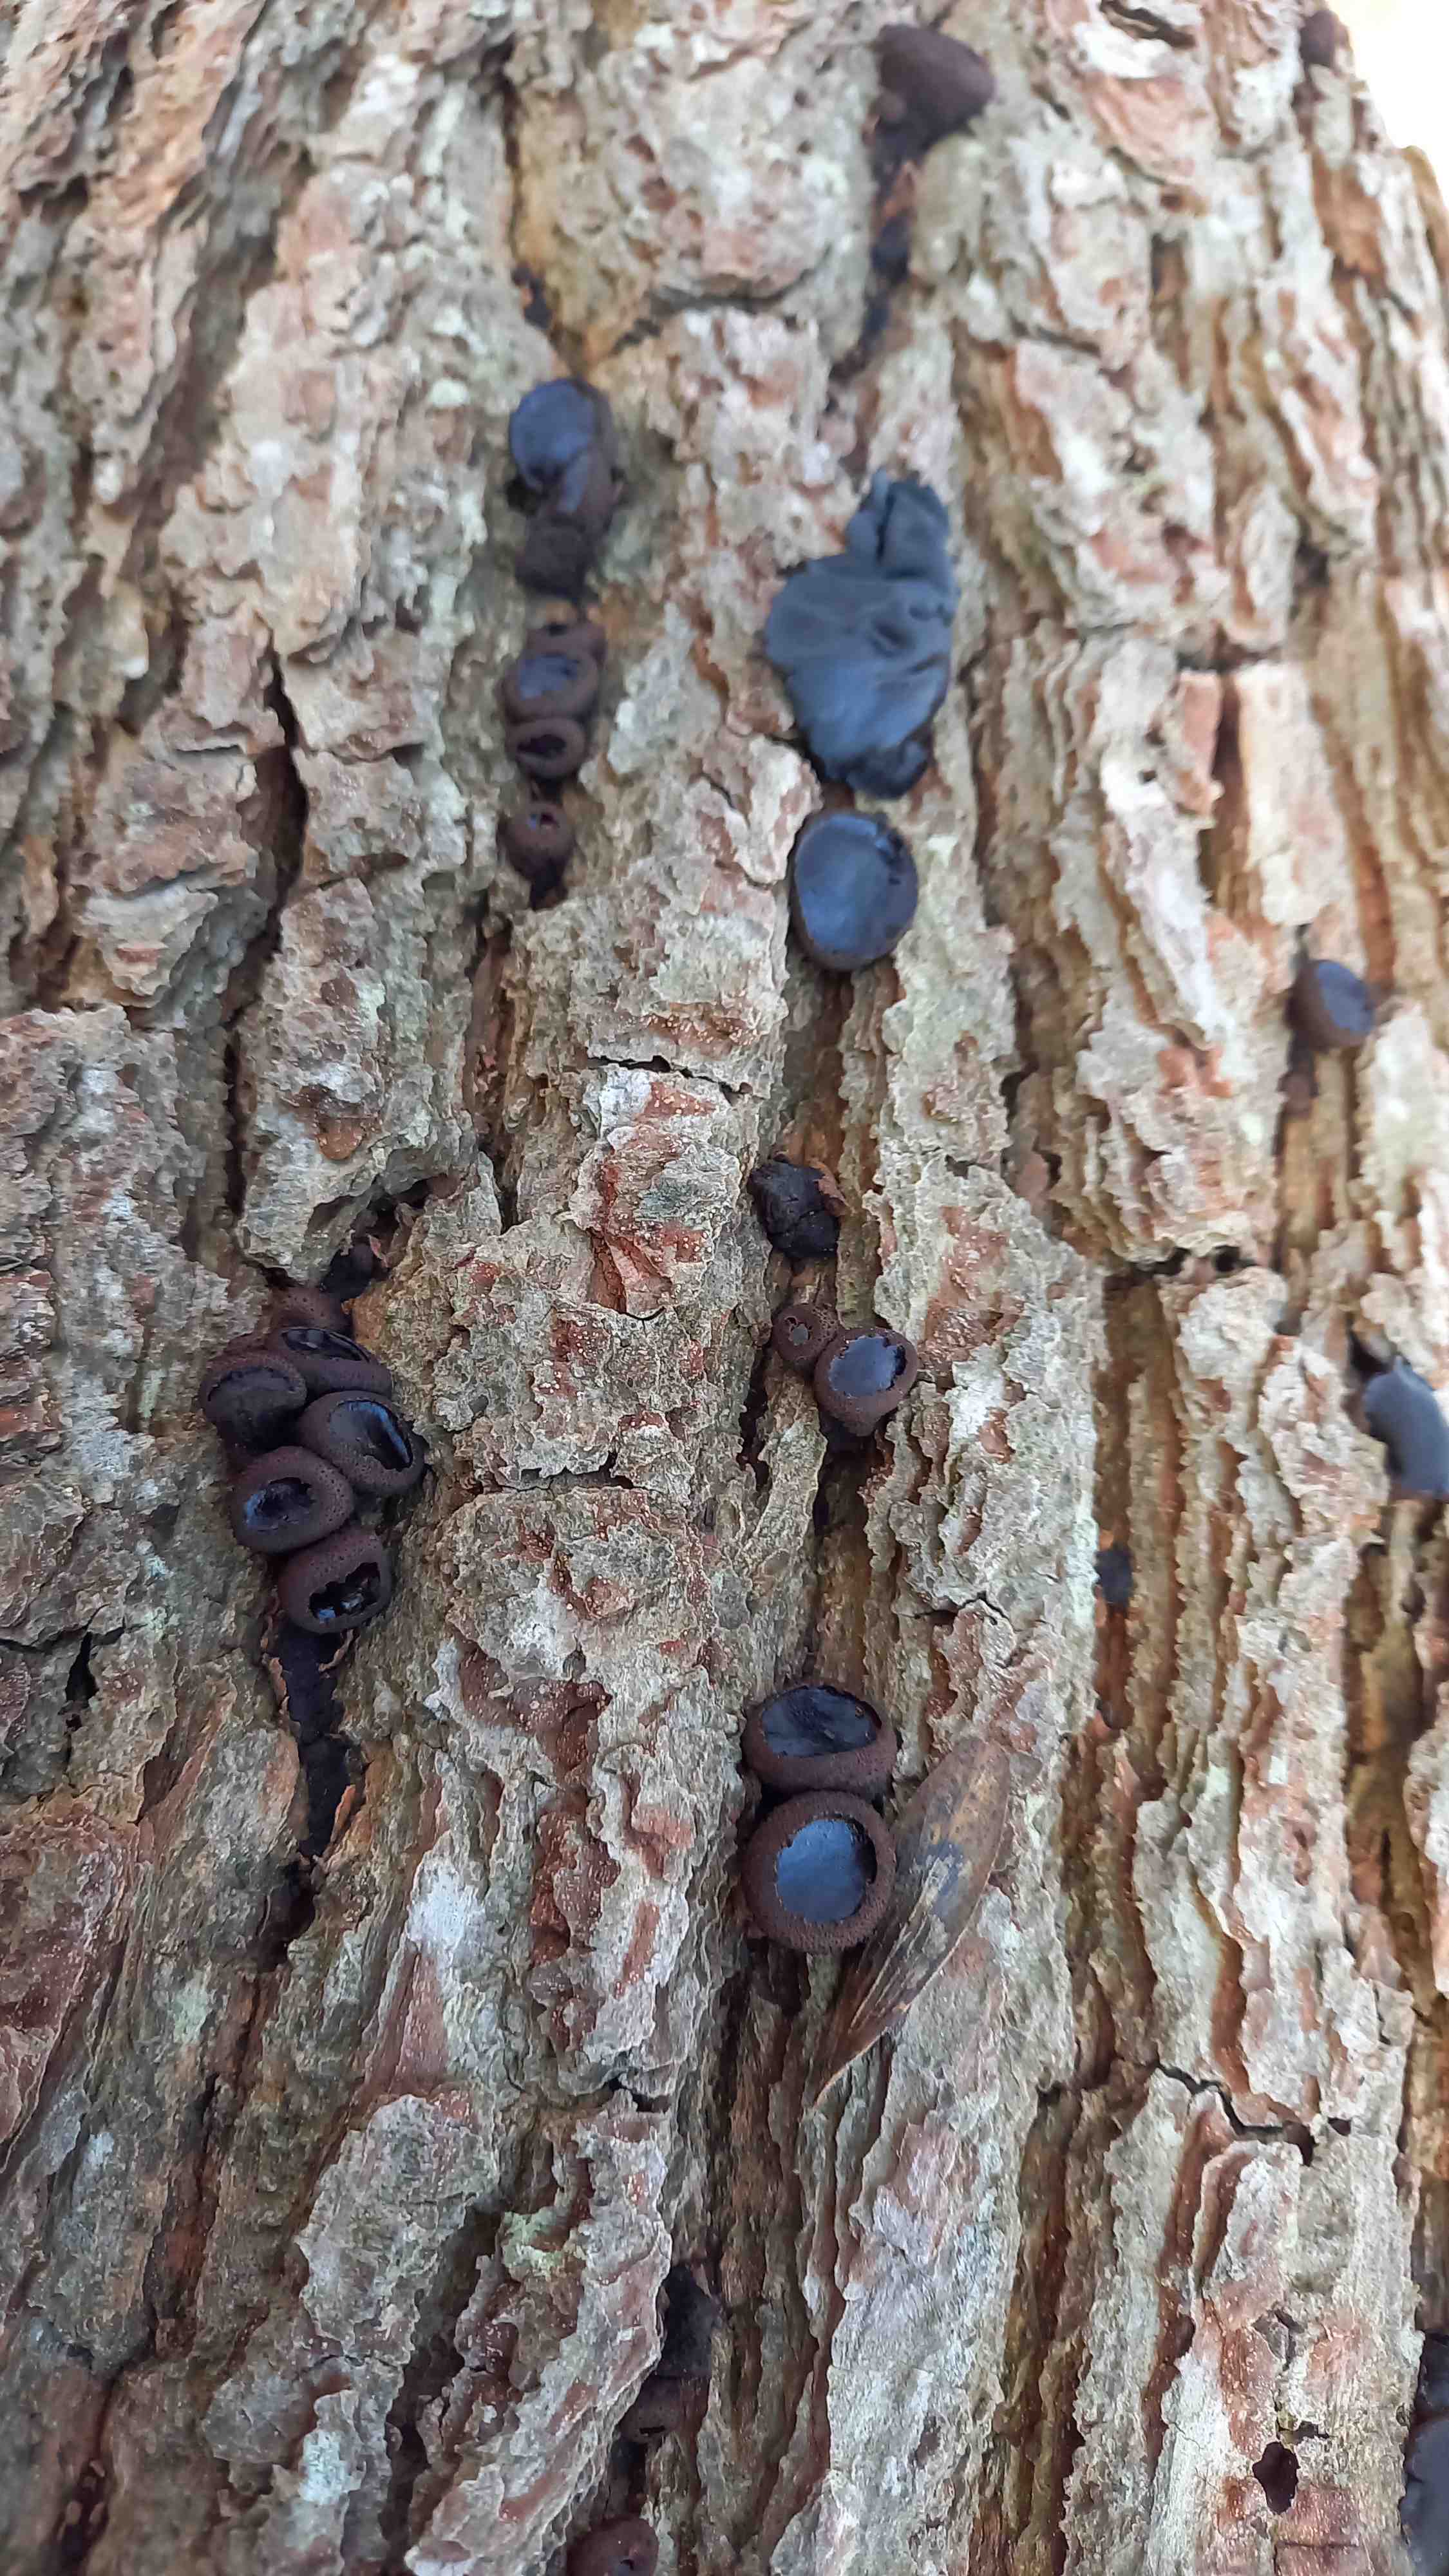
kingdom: Fungi
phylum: Ascomycota
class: Leotiomycetes
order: Phacidiales
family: Phacidiaceae
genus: Bulgaria
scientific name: Bulgaria inquinans
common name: afsmittende topsvamp
